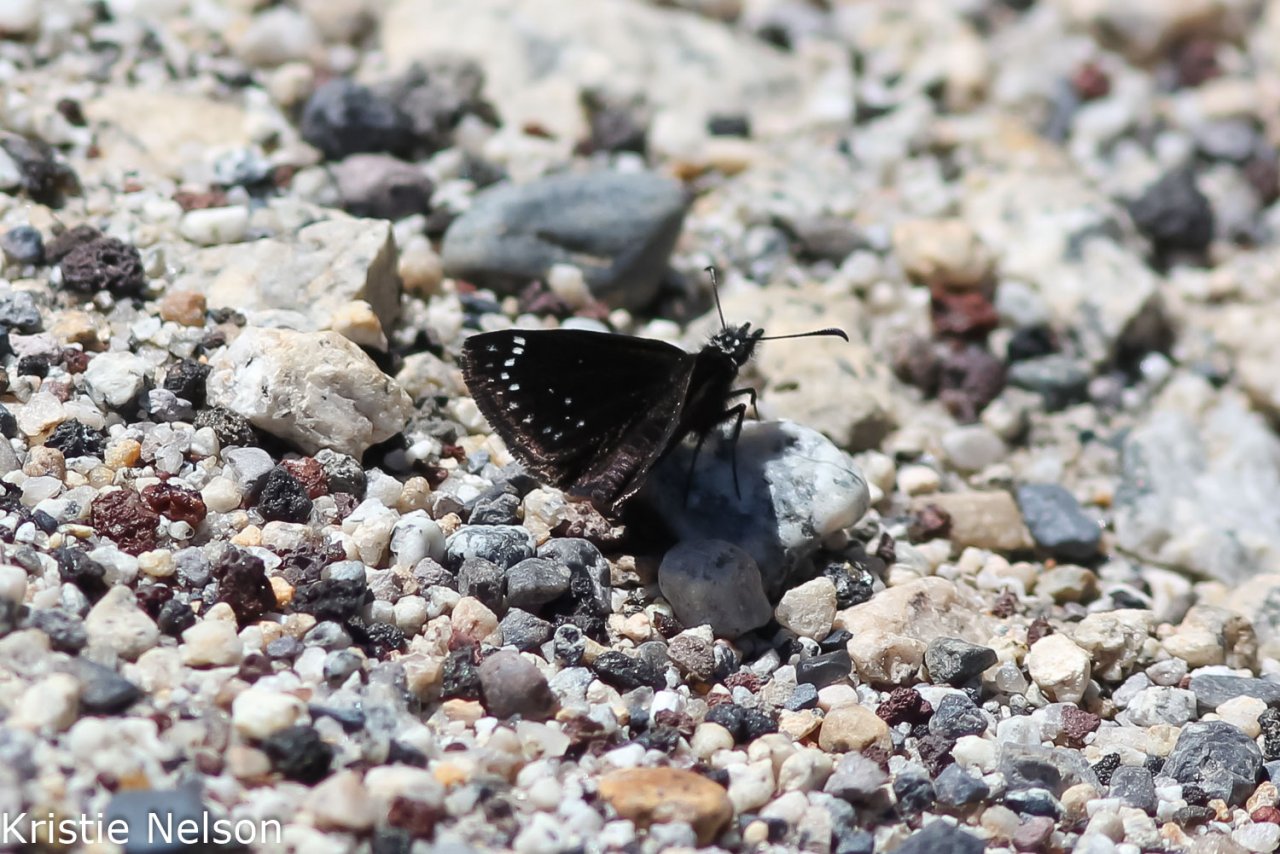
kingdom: Animalia
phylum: Arthropoda
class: Insecta
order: Lepidoptera
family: Hesperiidae
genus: Pholisora
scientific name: Pholisora catullus
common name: Common Sootywing
